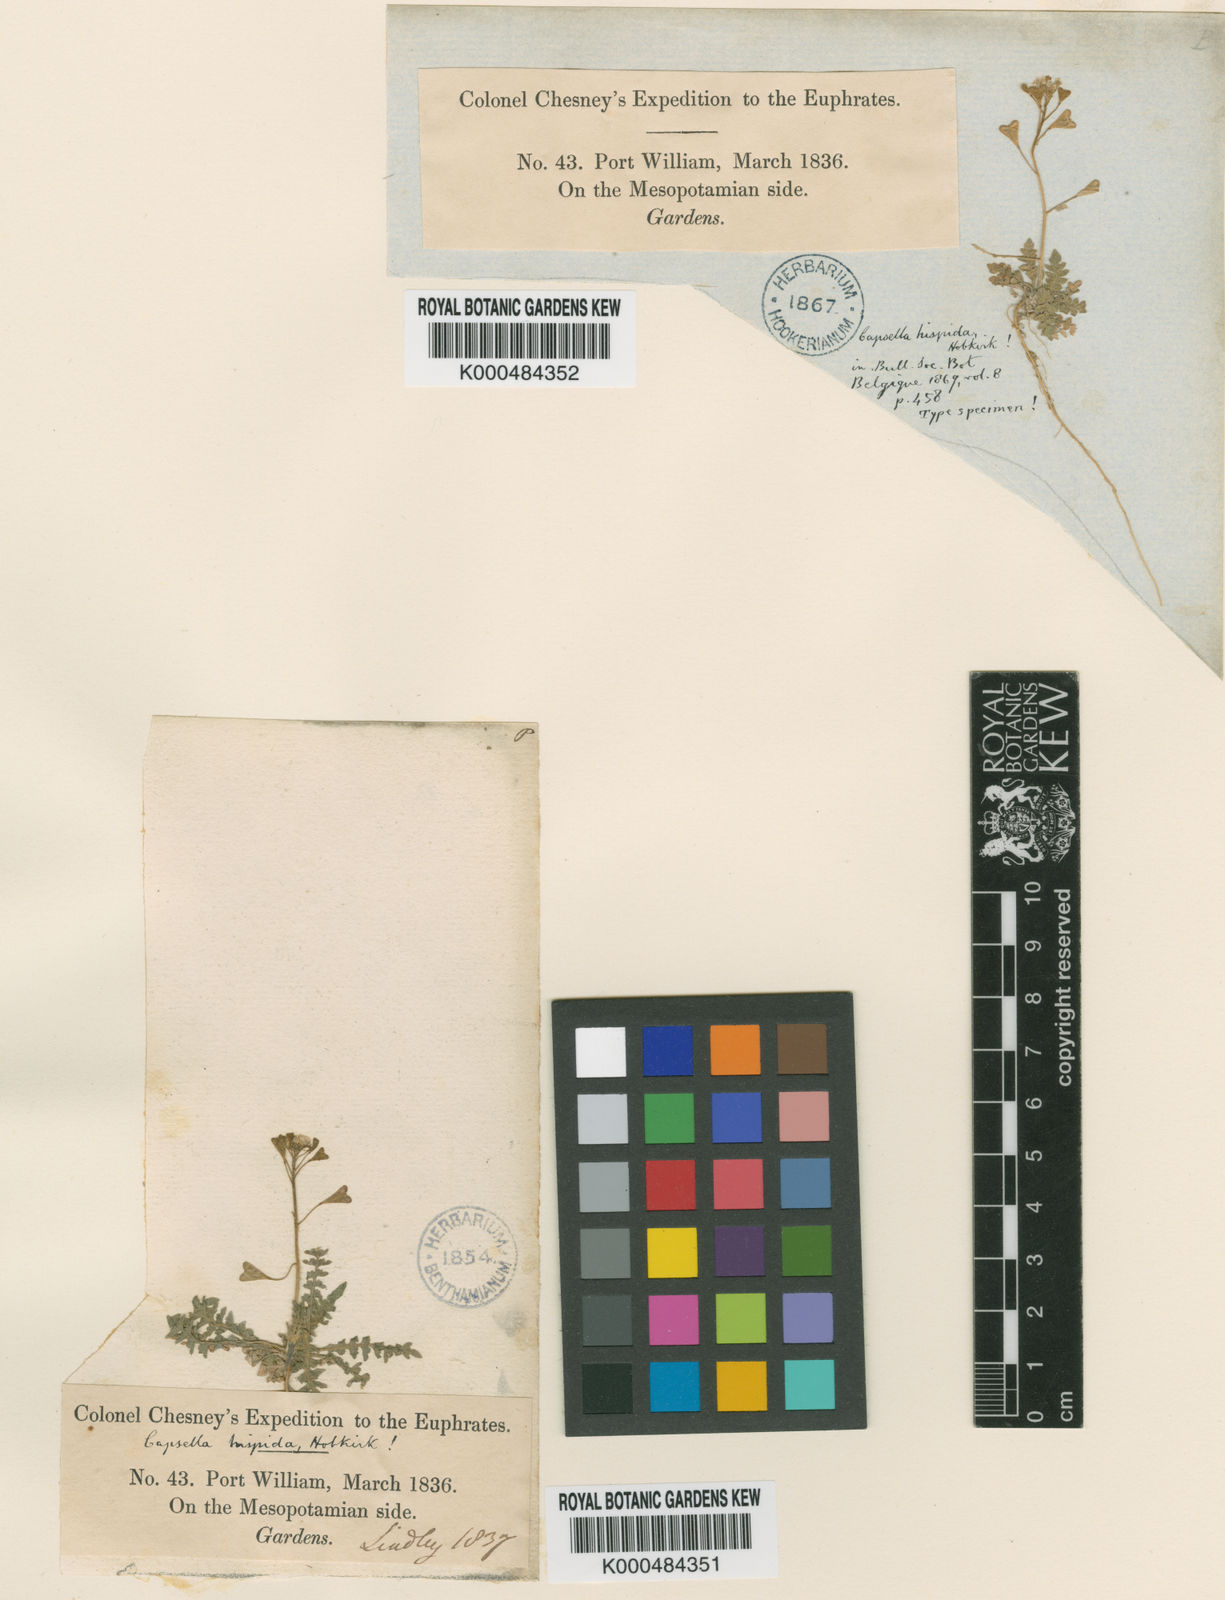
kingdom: Plantae
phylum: Tracheophyta
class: Magnoliopsida
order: Brassicales
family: Brassicaceae
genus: Capsella
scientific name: Capsella bursa-pastoris
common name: Shepherd's purse
